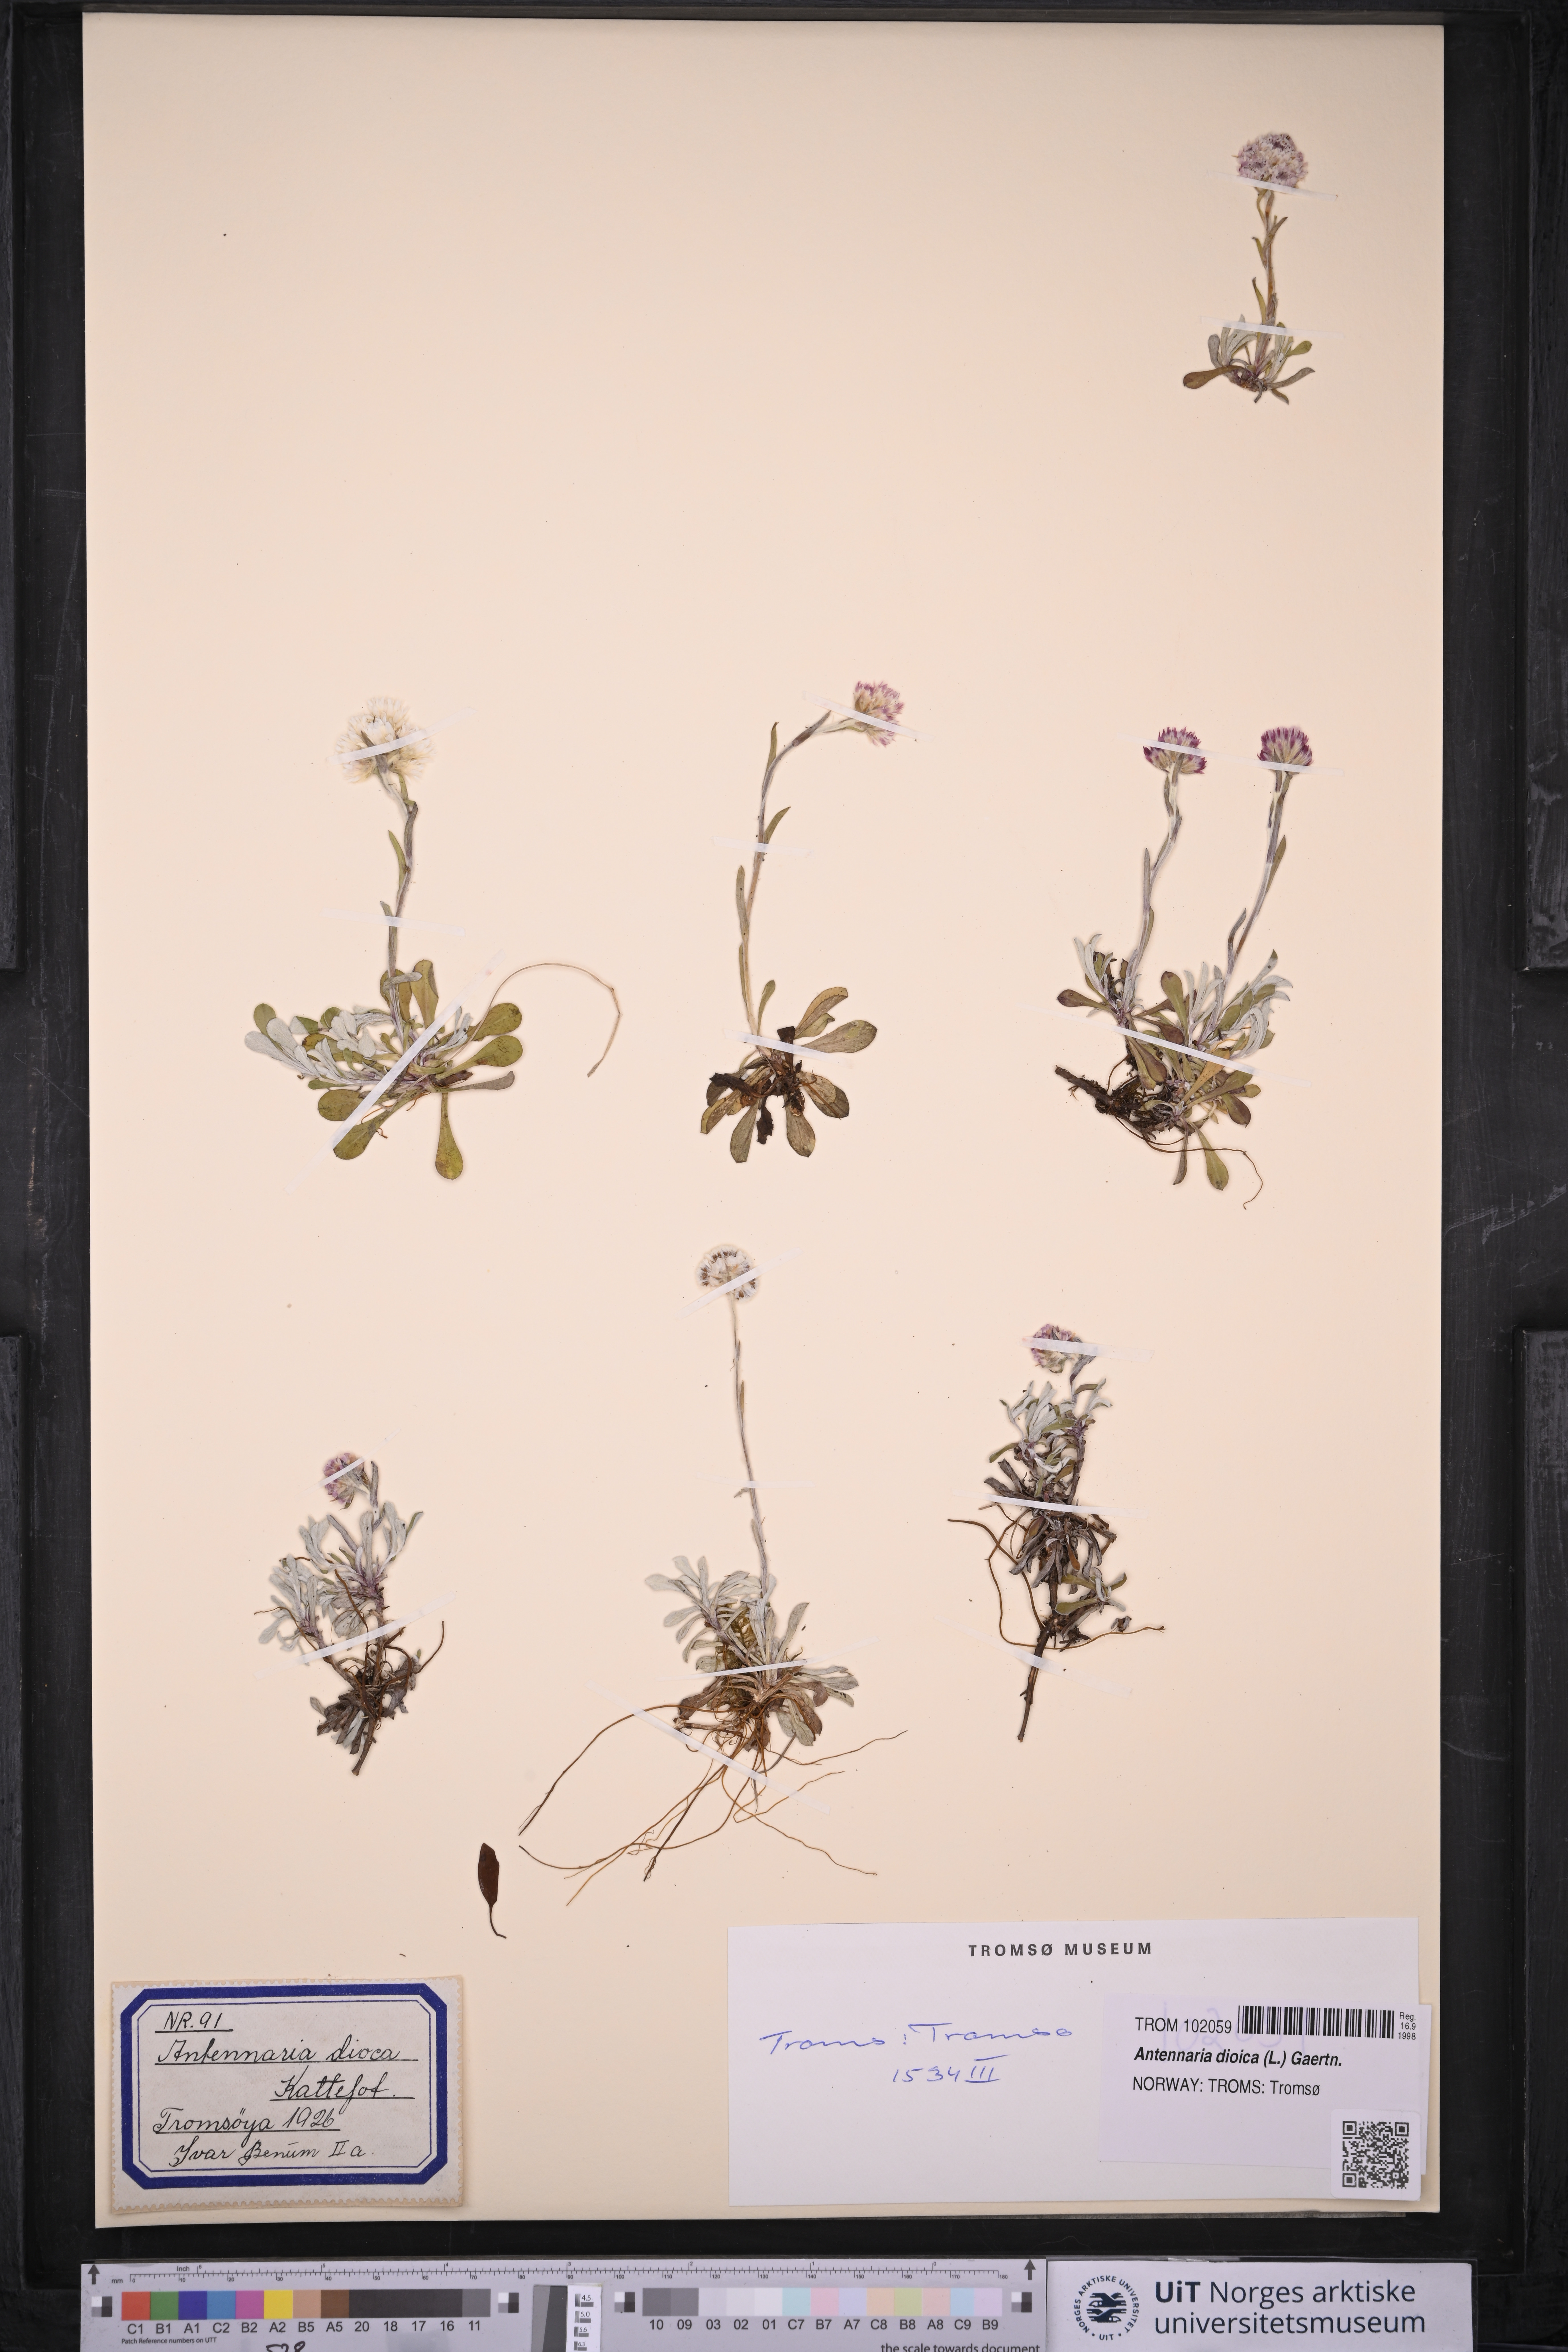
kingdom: Plantae
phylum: Tracheophyta
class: Magnoliopsida
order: Asterales
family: Asteraceae
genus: Antennaria
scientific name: Antennaria dioica
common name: Mountain everlasting
